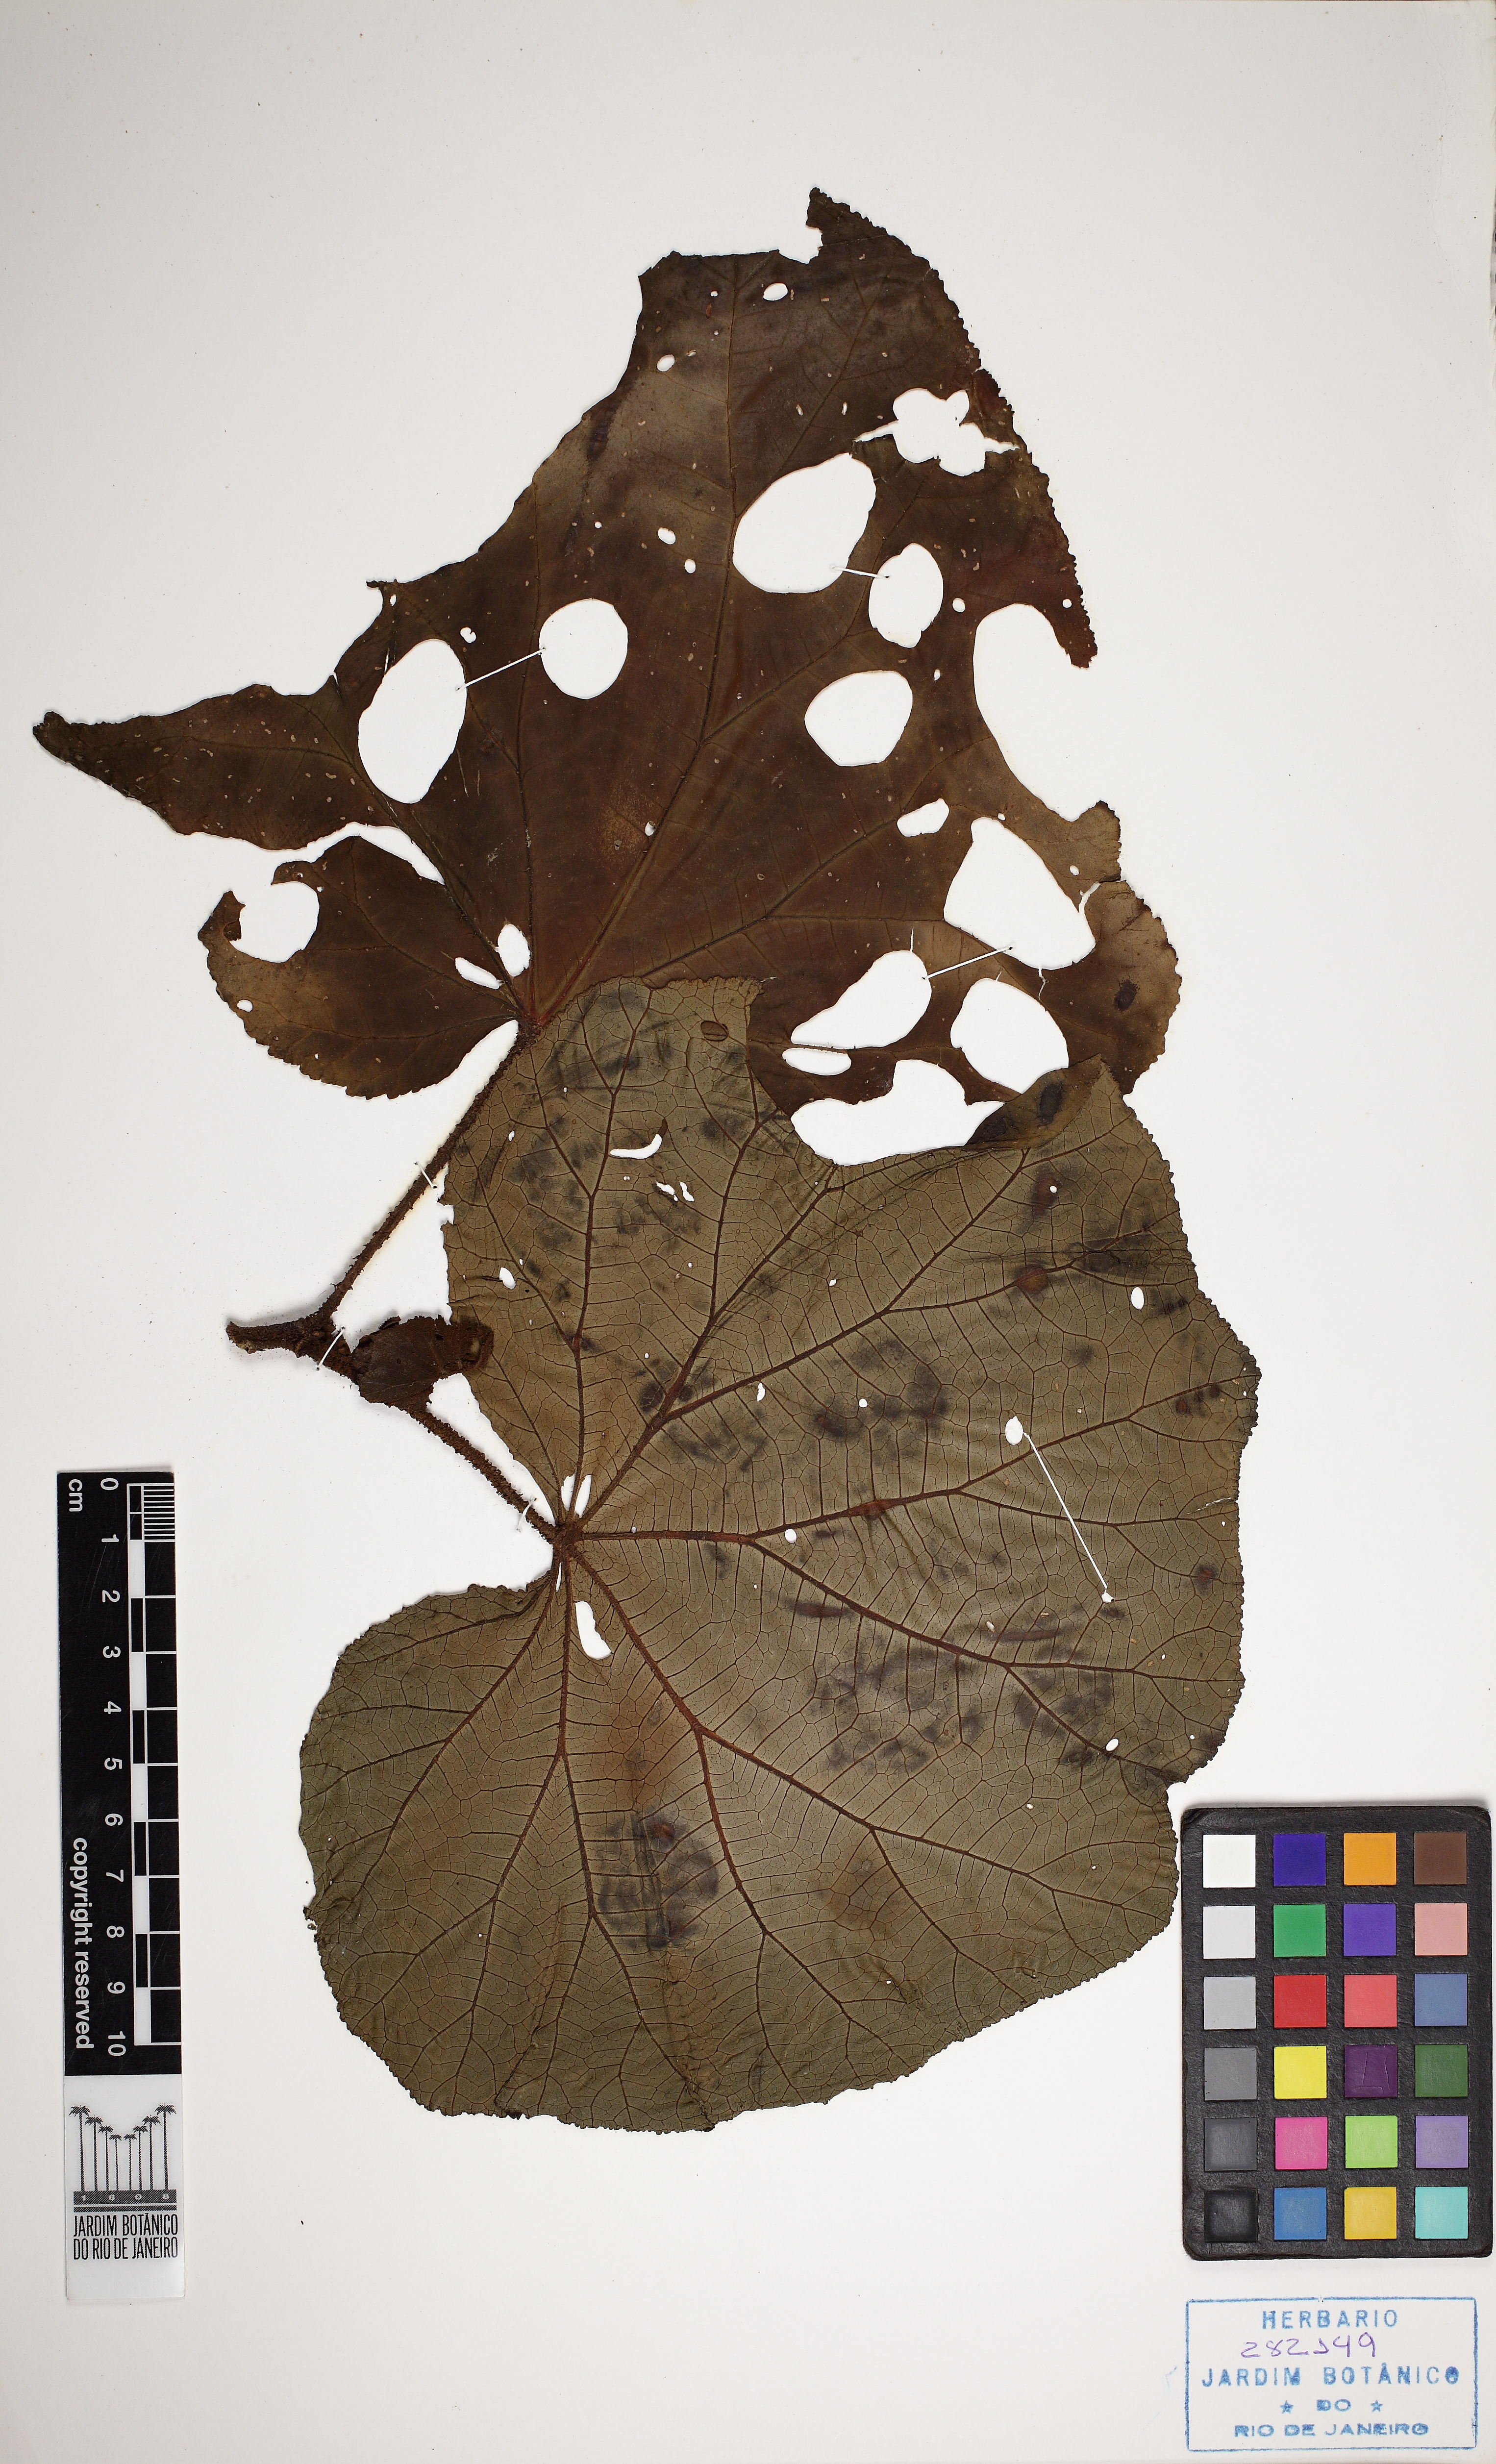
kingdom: Plantae
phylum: Tracheophyta
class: Magnoliopsida
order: Cucurbitales
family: Begoniaceae
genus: Begonia
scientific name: Begonia huegelii
